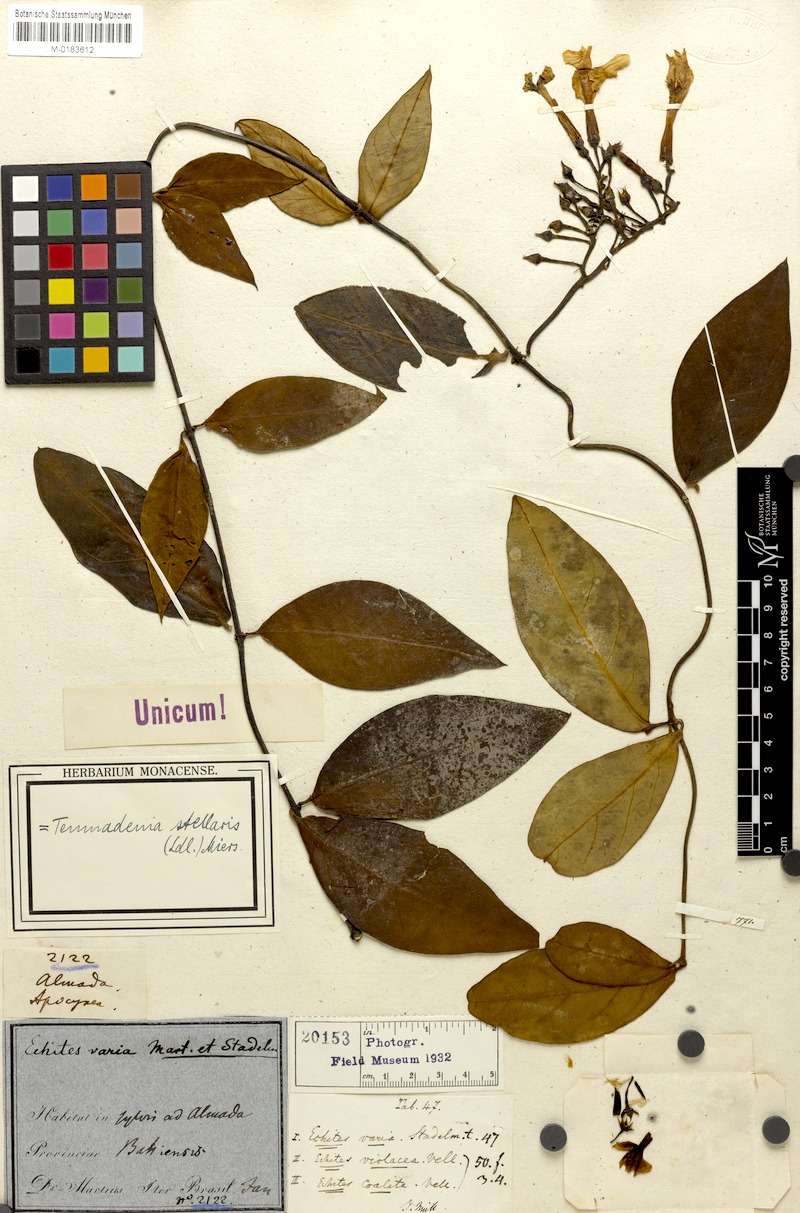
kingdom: Plantae
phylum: Tracheophyta
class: Magnoliopsida
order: Gentianales
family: Apocynaceae
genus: Temnadenia
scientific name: Temnadenia odorifera
